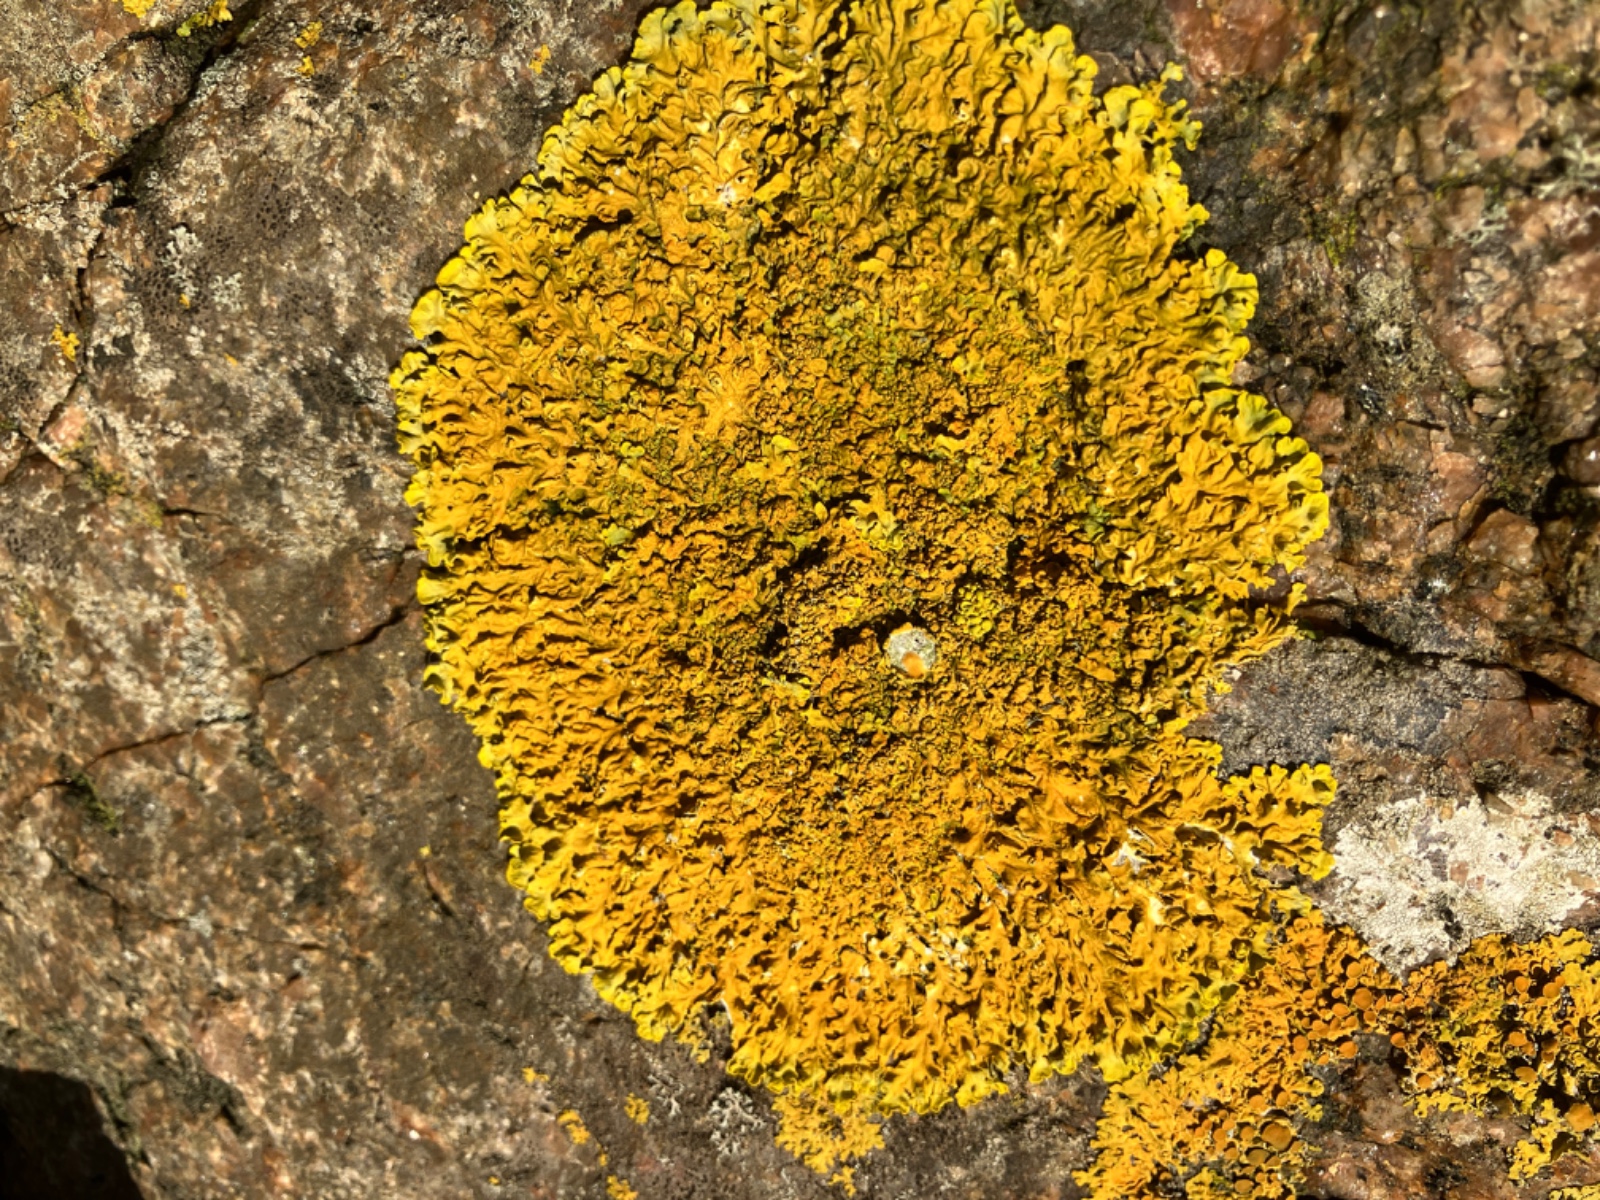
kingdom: Fungi
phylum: Ascomycota
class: Lecanoromycetes
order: Teloschistales
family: Teloschistaceae
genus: Xanthoria
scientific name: Xanthoria calcicola
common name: vortet væggelav
